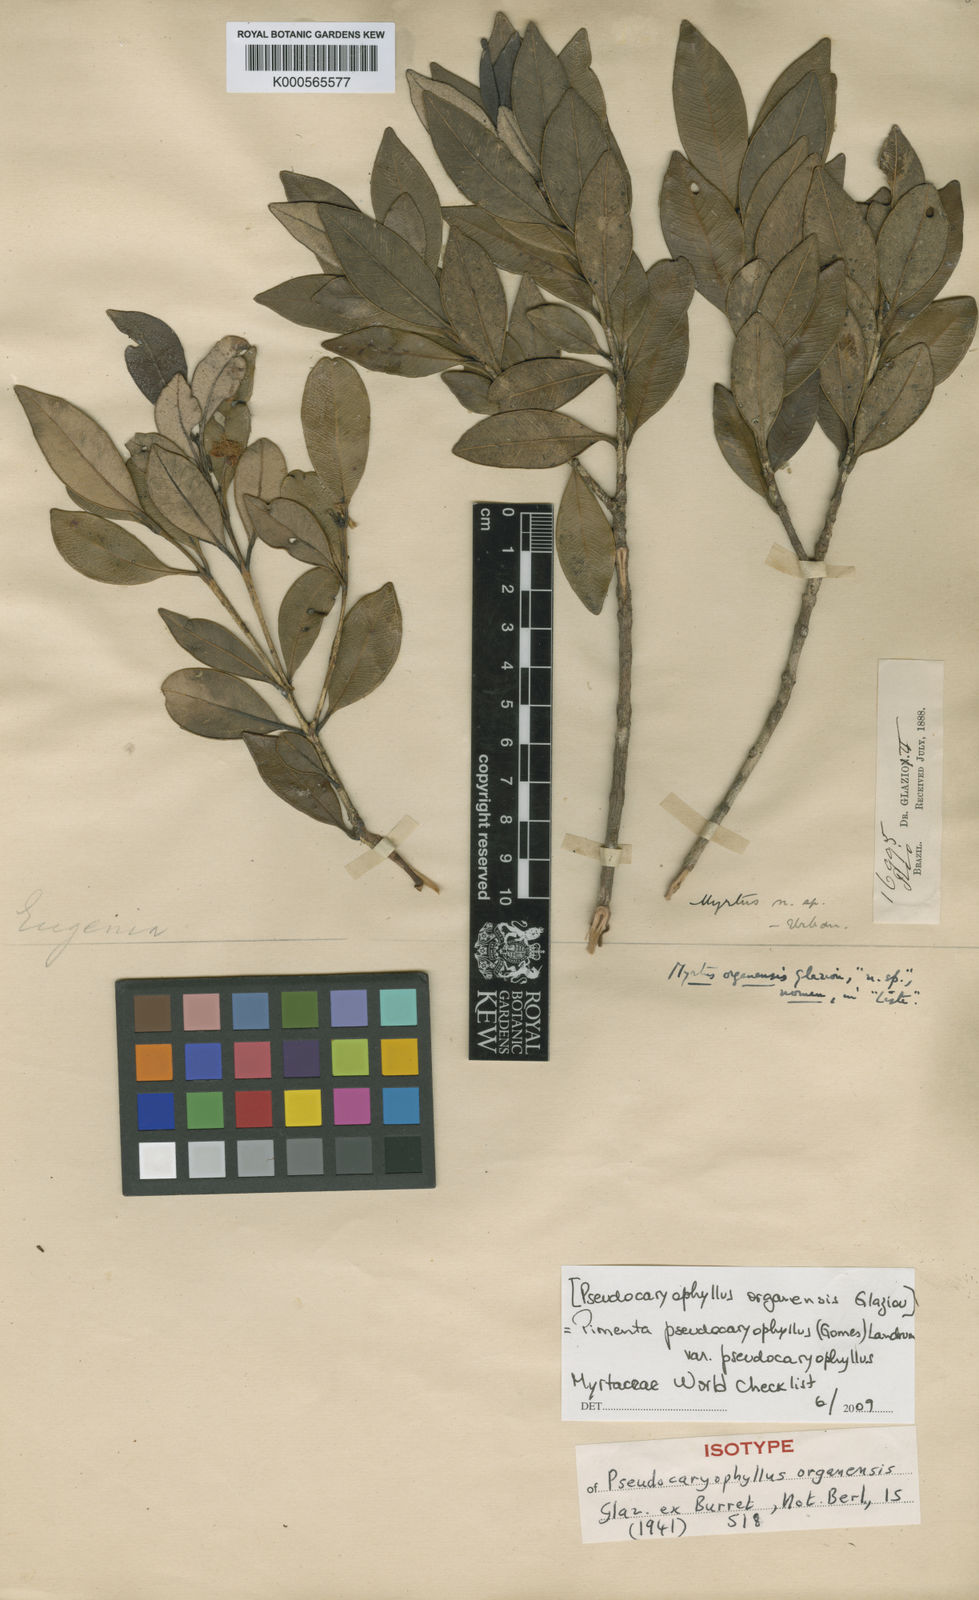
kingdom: Plantae
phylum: Tracheophyta
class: Magnoliopsida
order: Myrtales
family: Myrtaceae
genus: Pimenta
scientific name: Pimenta pseudocaryophyllus
